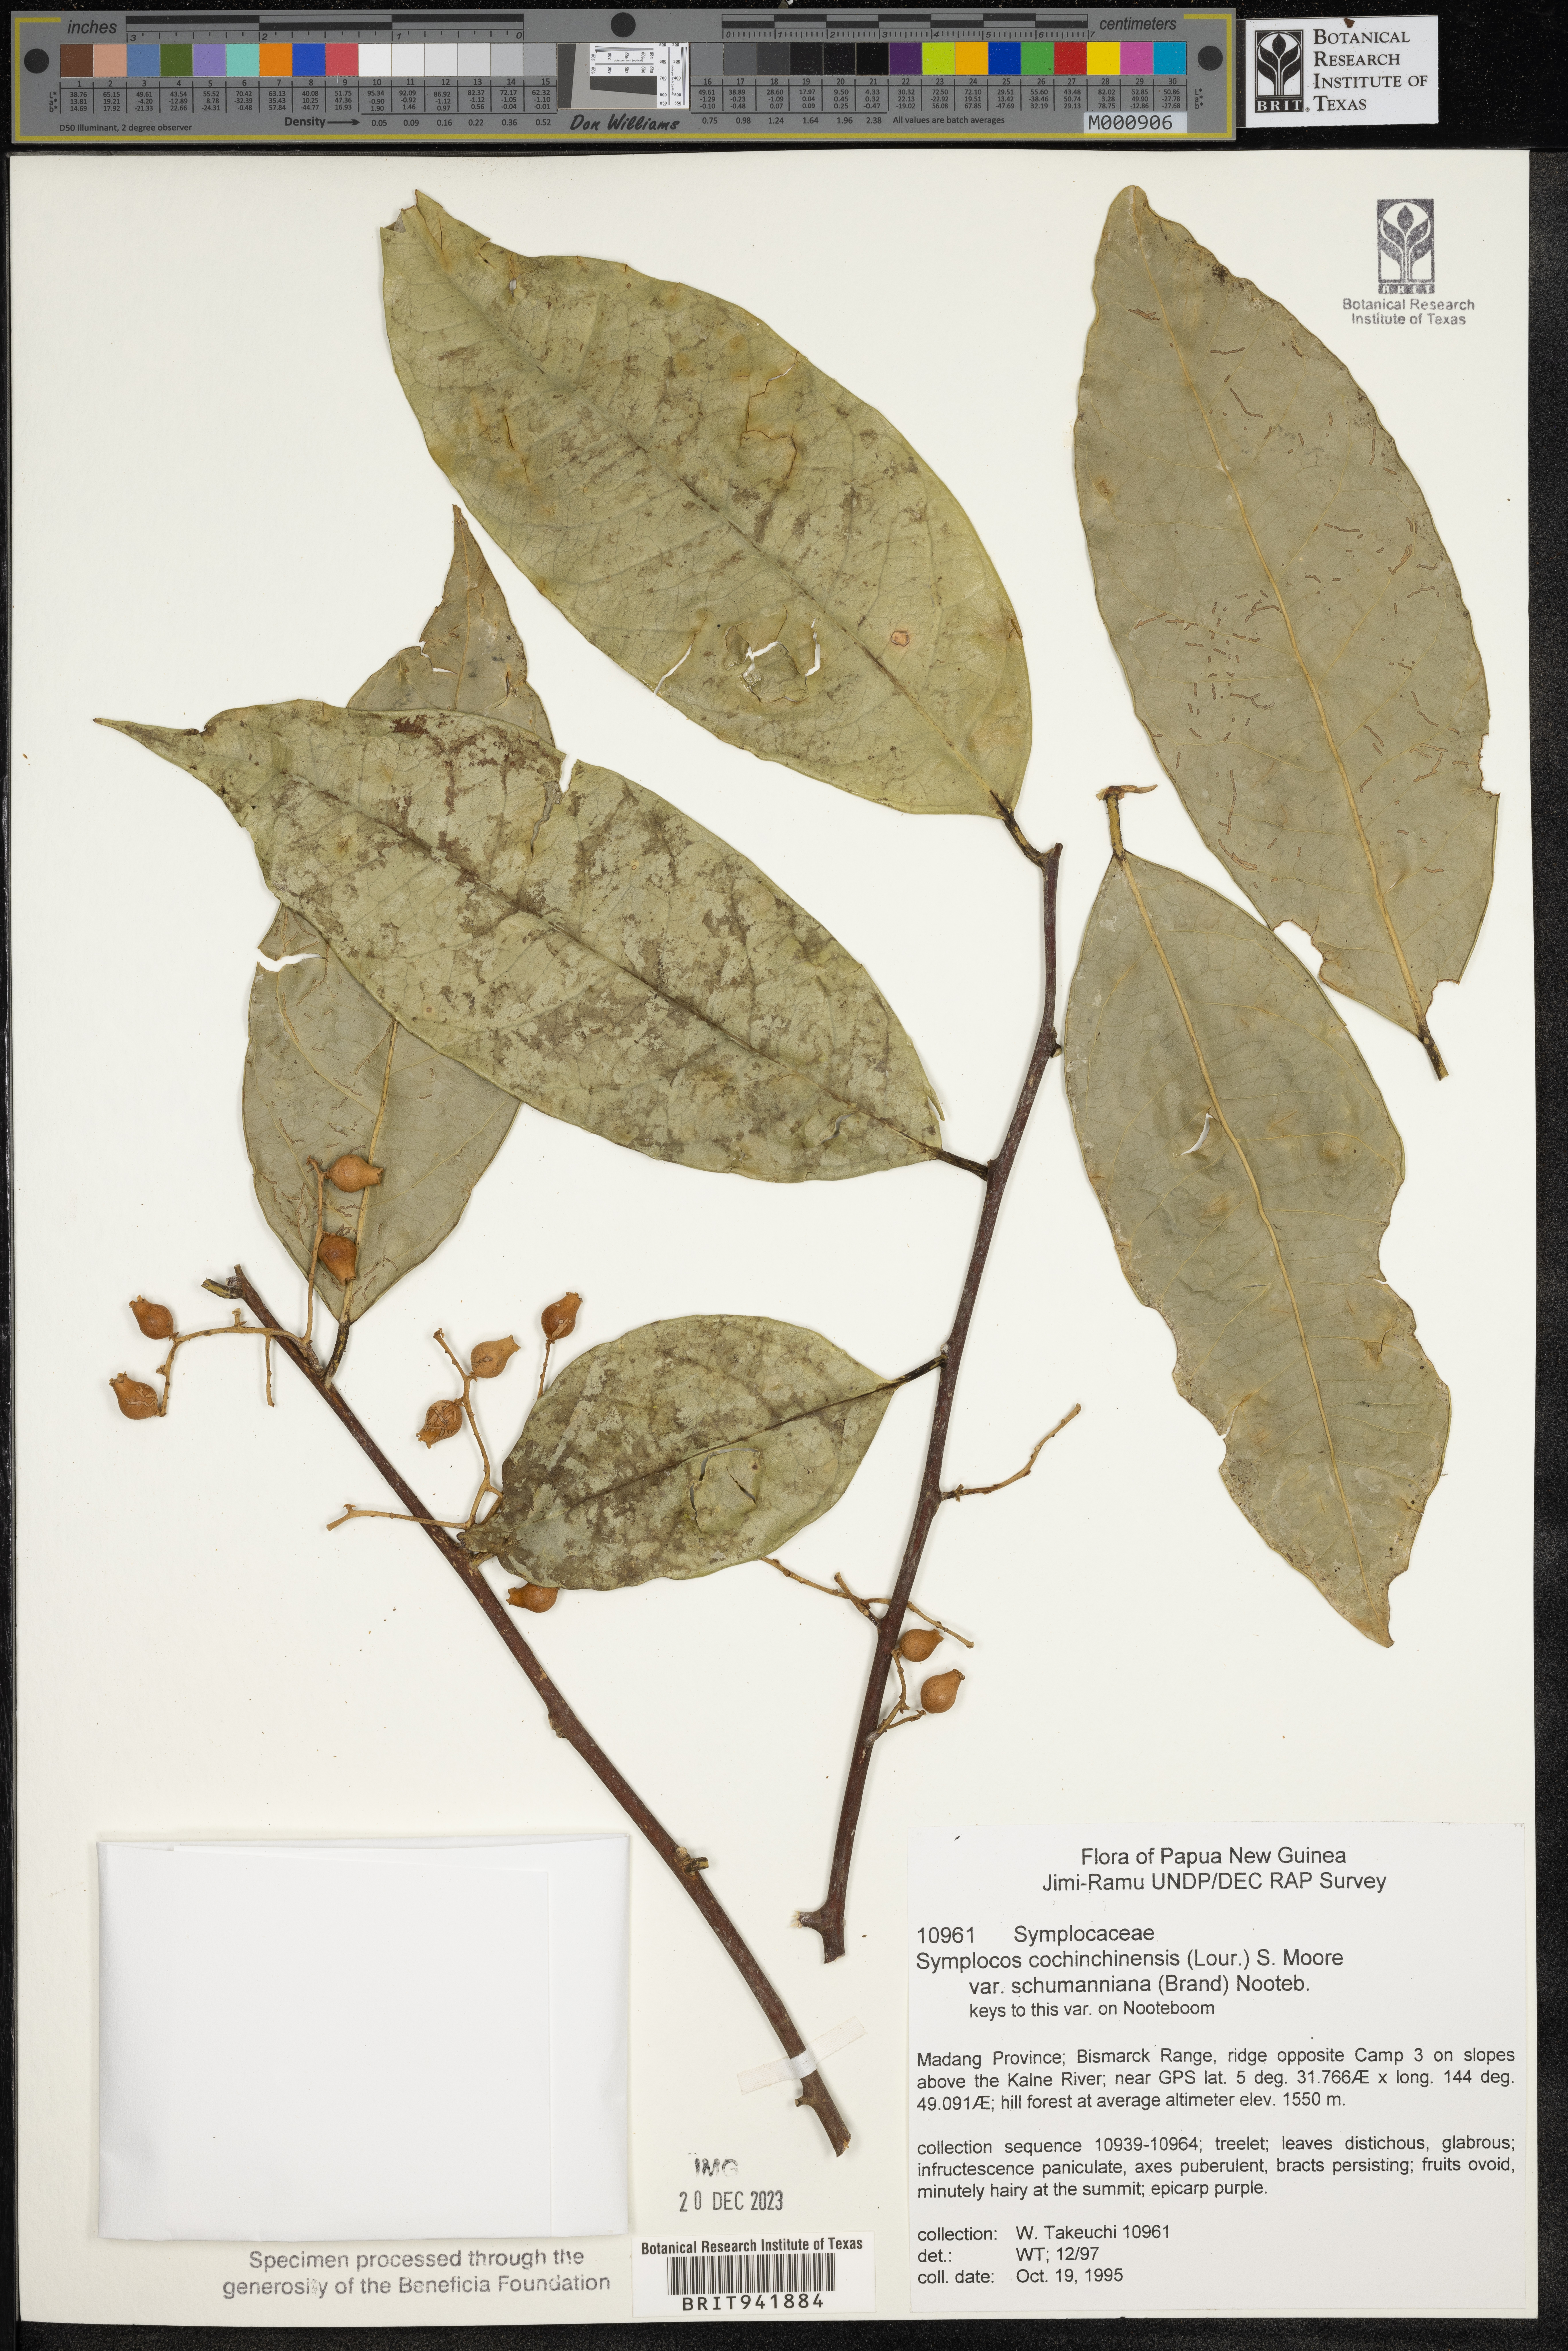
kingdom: Plantae
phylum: Tracheophyta
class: Magnoliopsida
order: Ericales
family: Symplocaceae
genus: Symplocos
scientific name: Symplocos cochinchinensis
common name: Buff hazelwood
